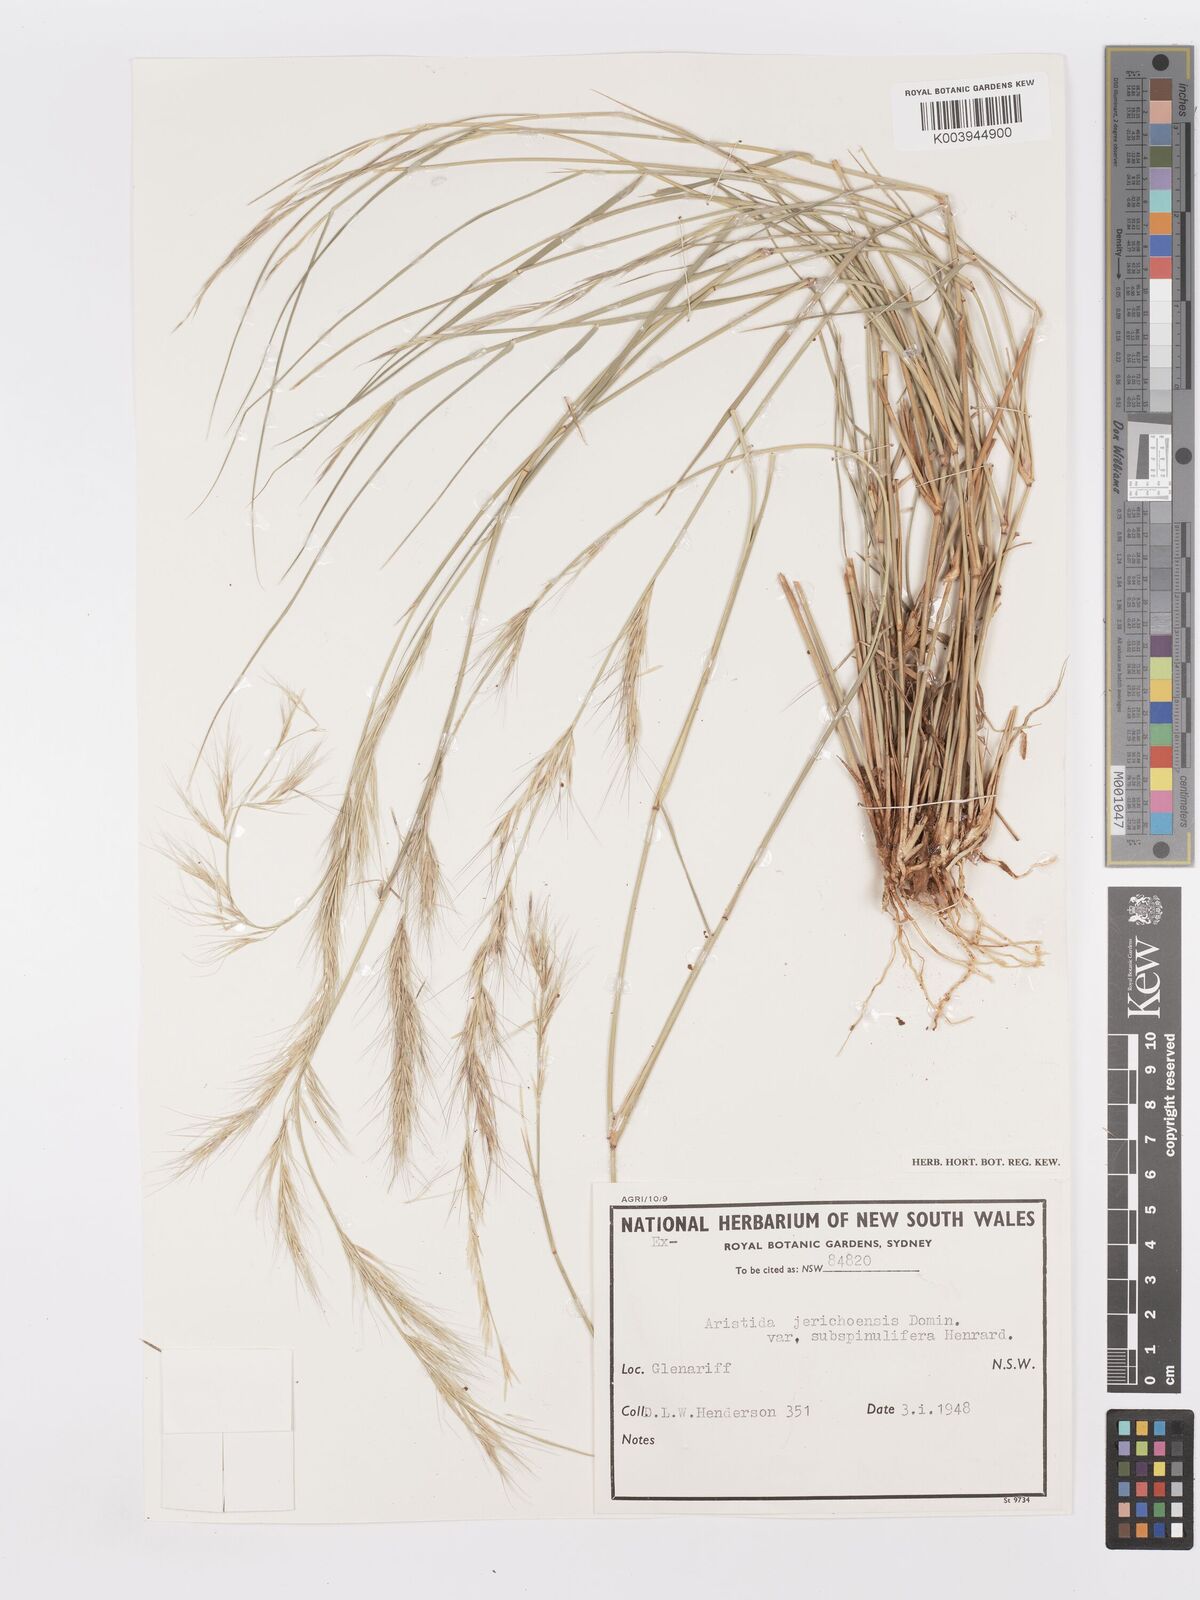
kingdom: Plantae
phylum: Tracheophyta
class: Liliopsida
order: Poales
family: Poaceae
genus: Aristida
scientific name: Aristida jerichoensis
